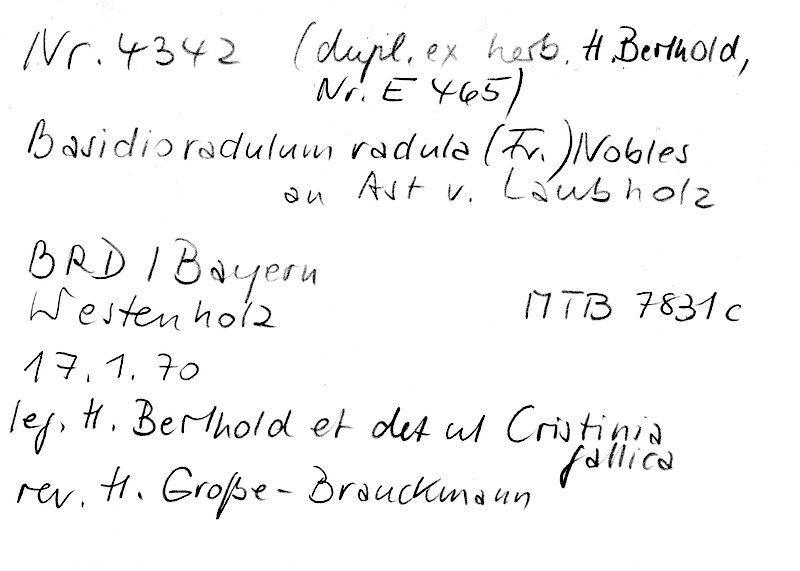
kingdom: Fungi
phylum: Basidiomycota
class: Agaricomycetes
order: Hymenochaetales
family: Schizoporaceae
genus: Xylodon
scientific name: Xylodon radula
